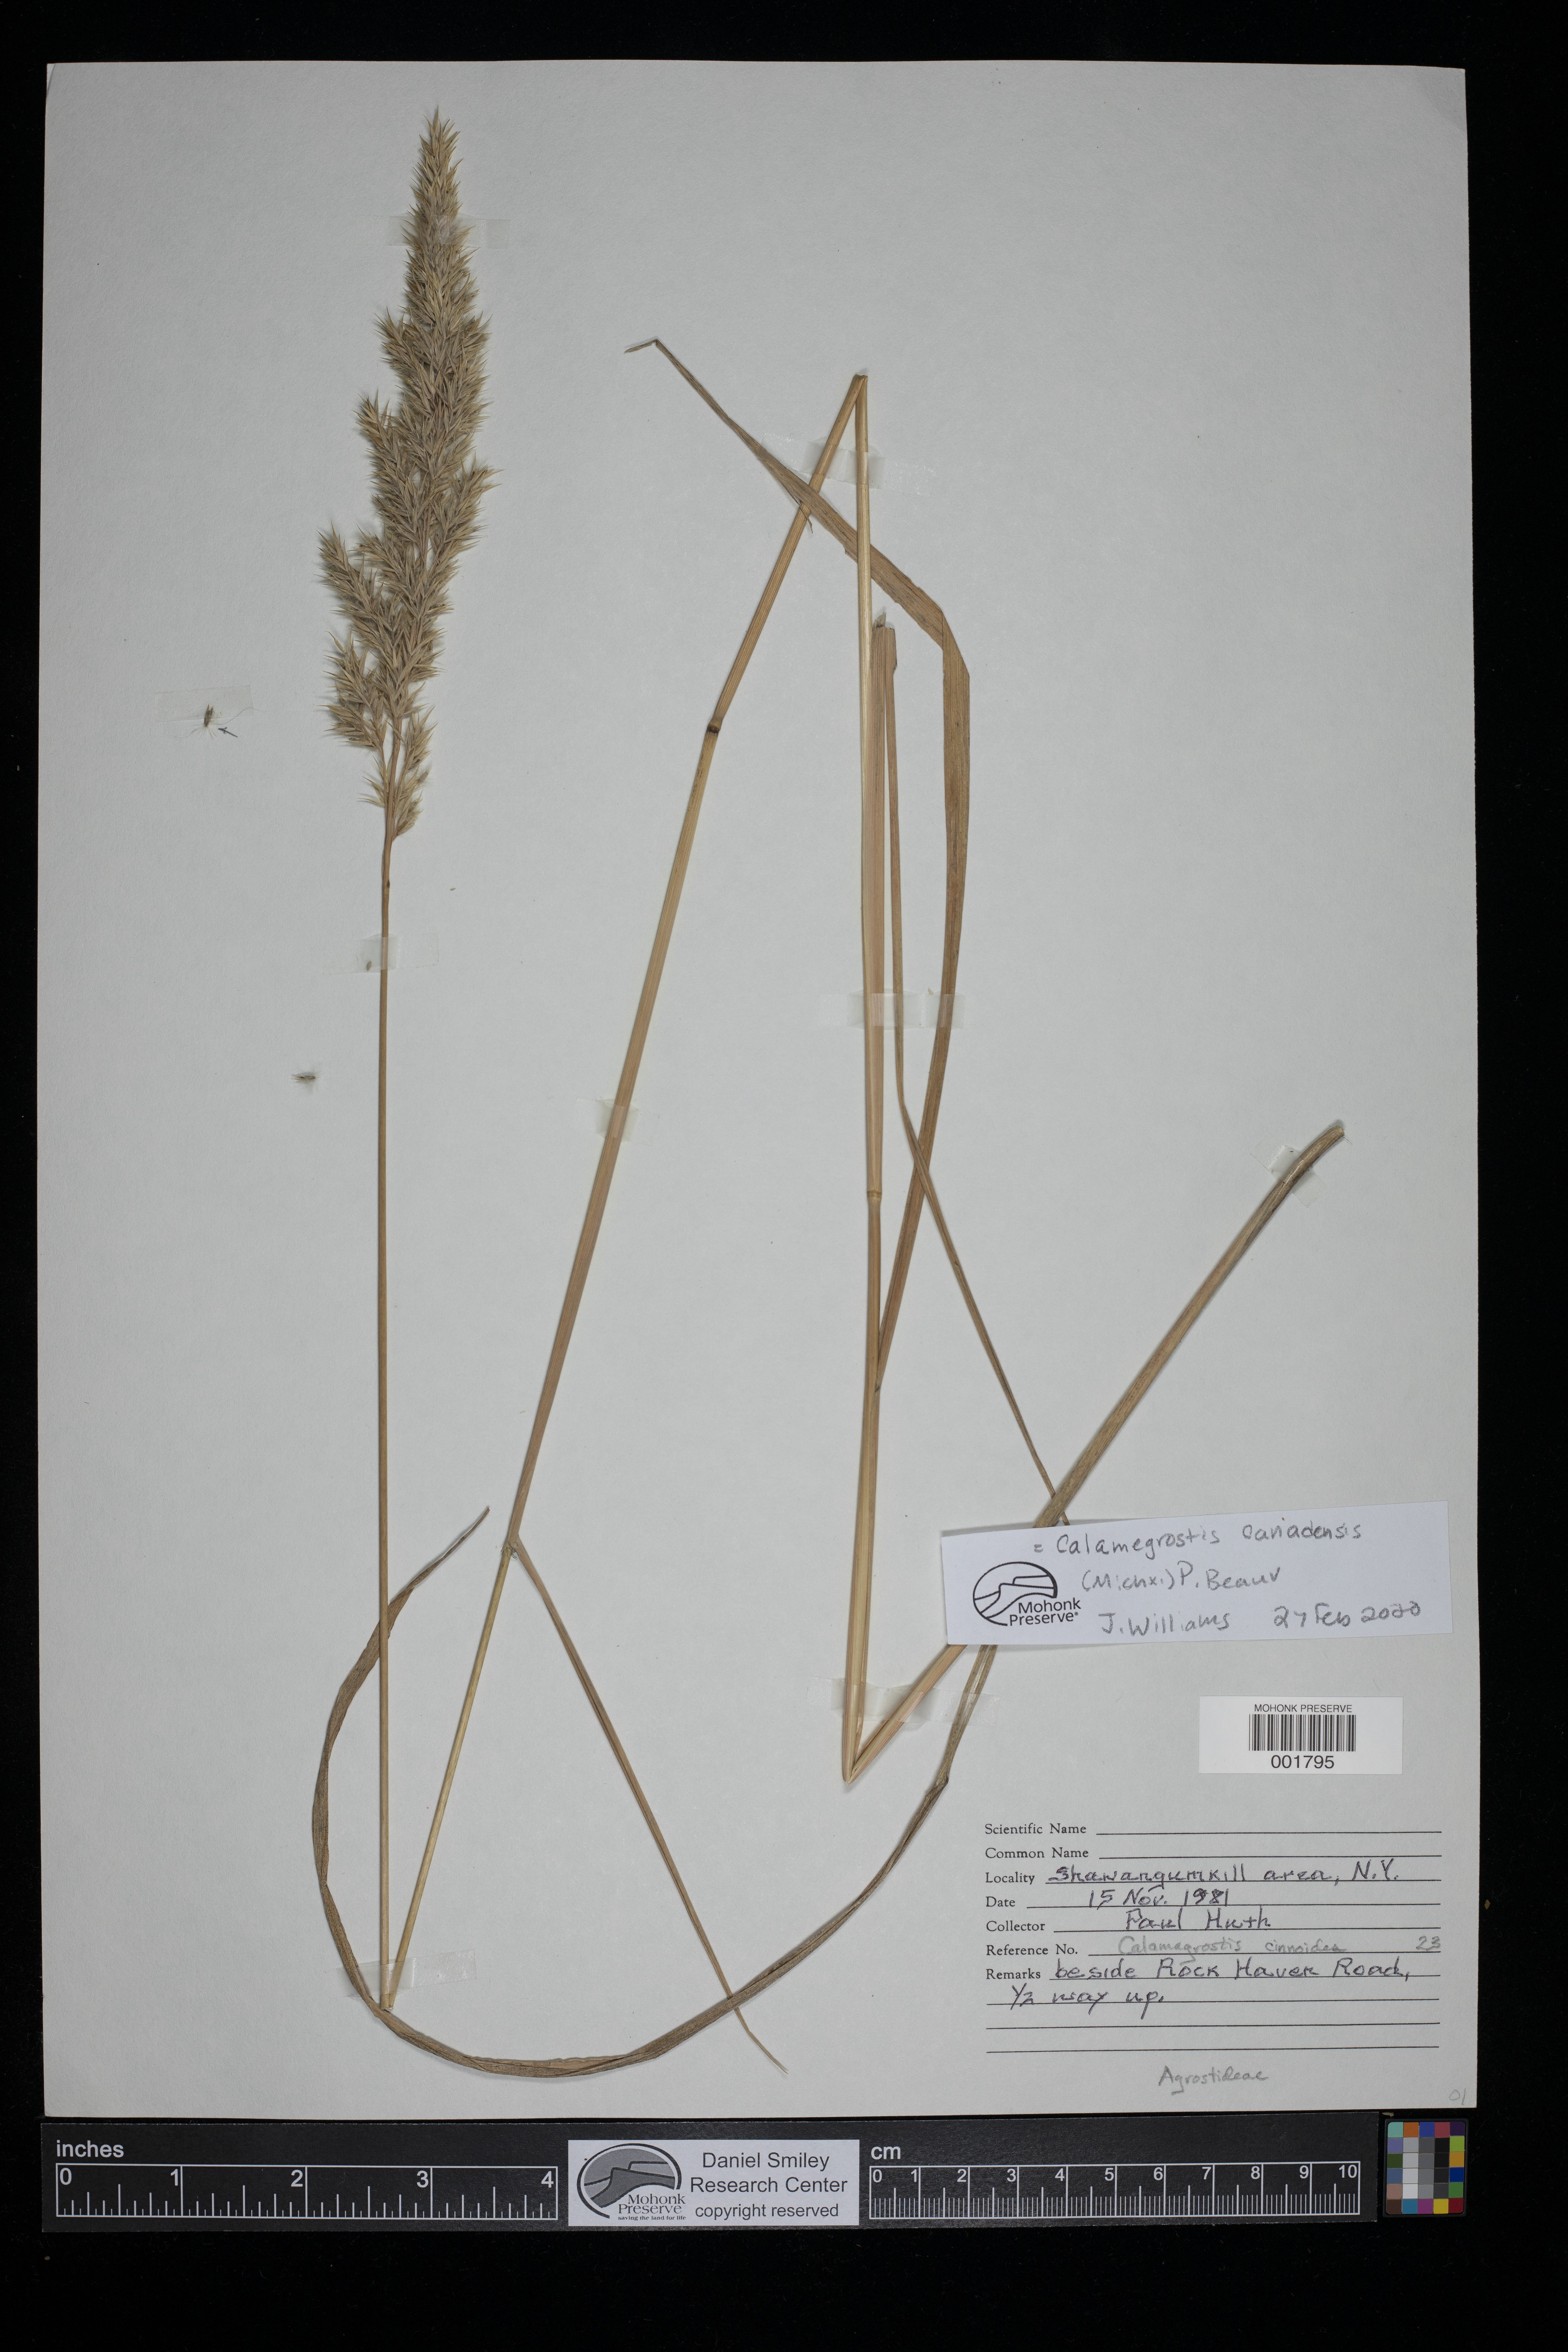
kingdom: Plantae
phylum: Tracheophyta
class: Liliopsida
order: Poales
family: Poaceae
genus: Calamagrostis
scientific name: Calamagrostis canadensis
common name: Canada bluejoint
